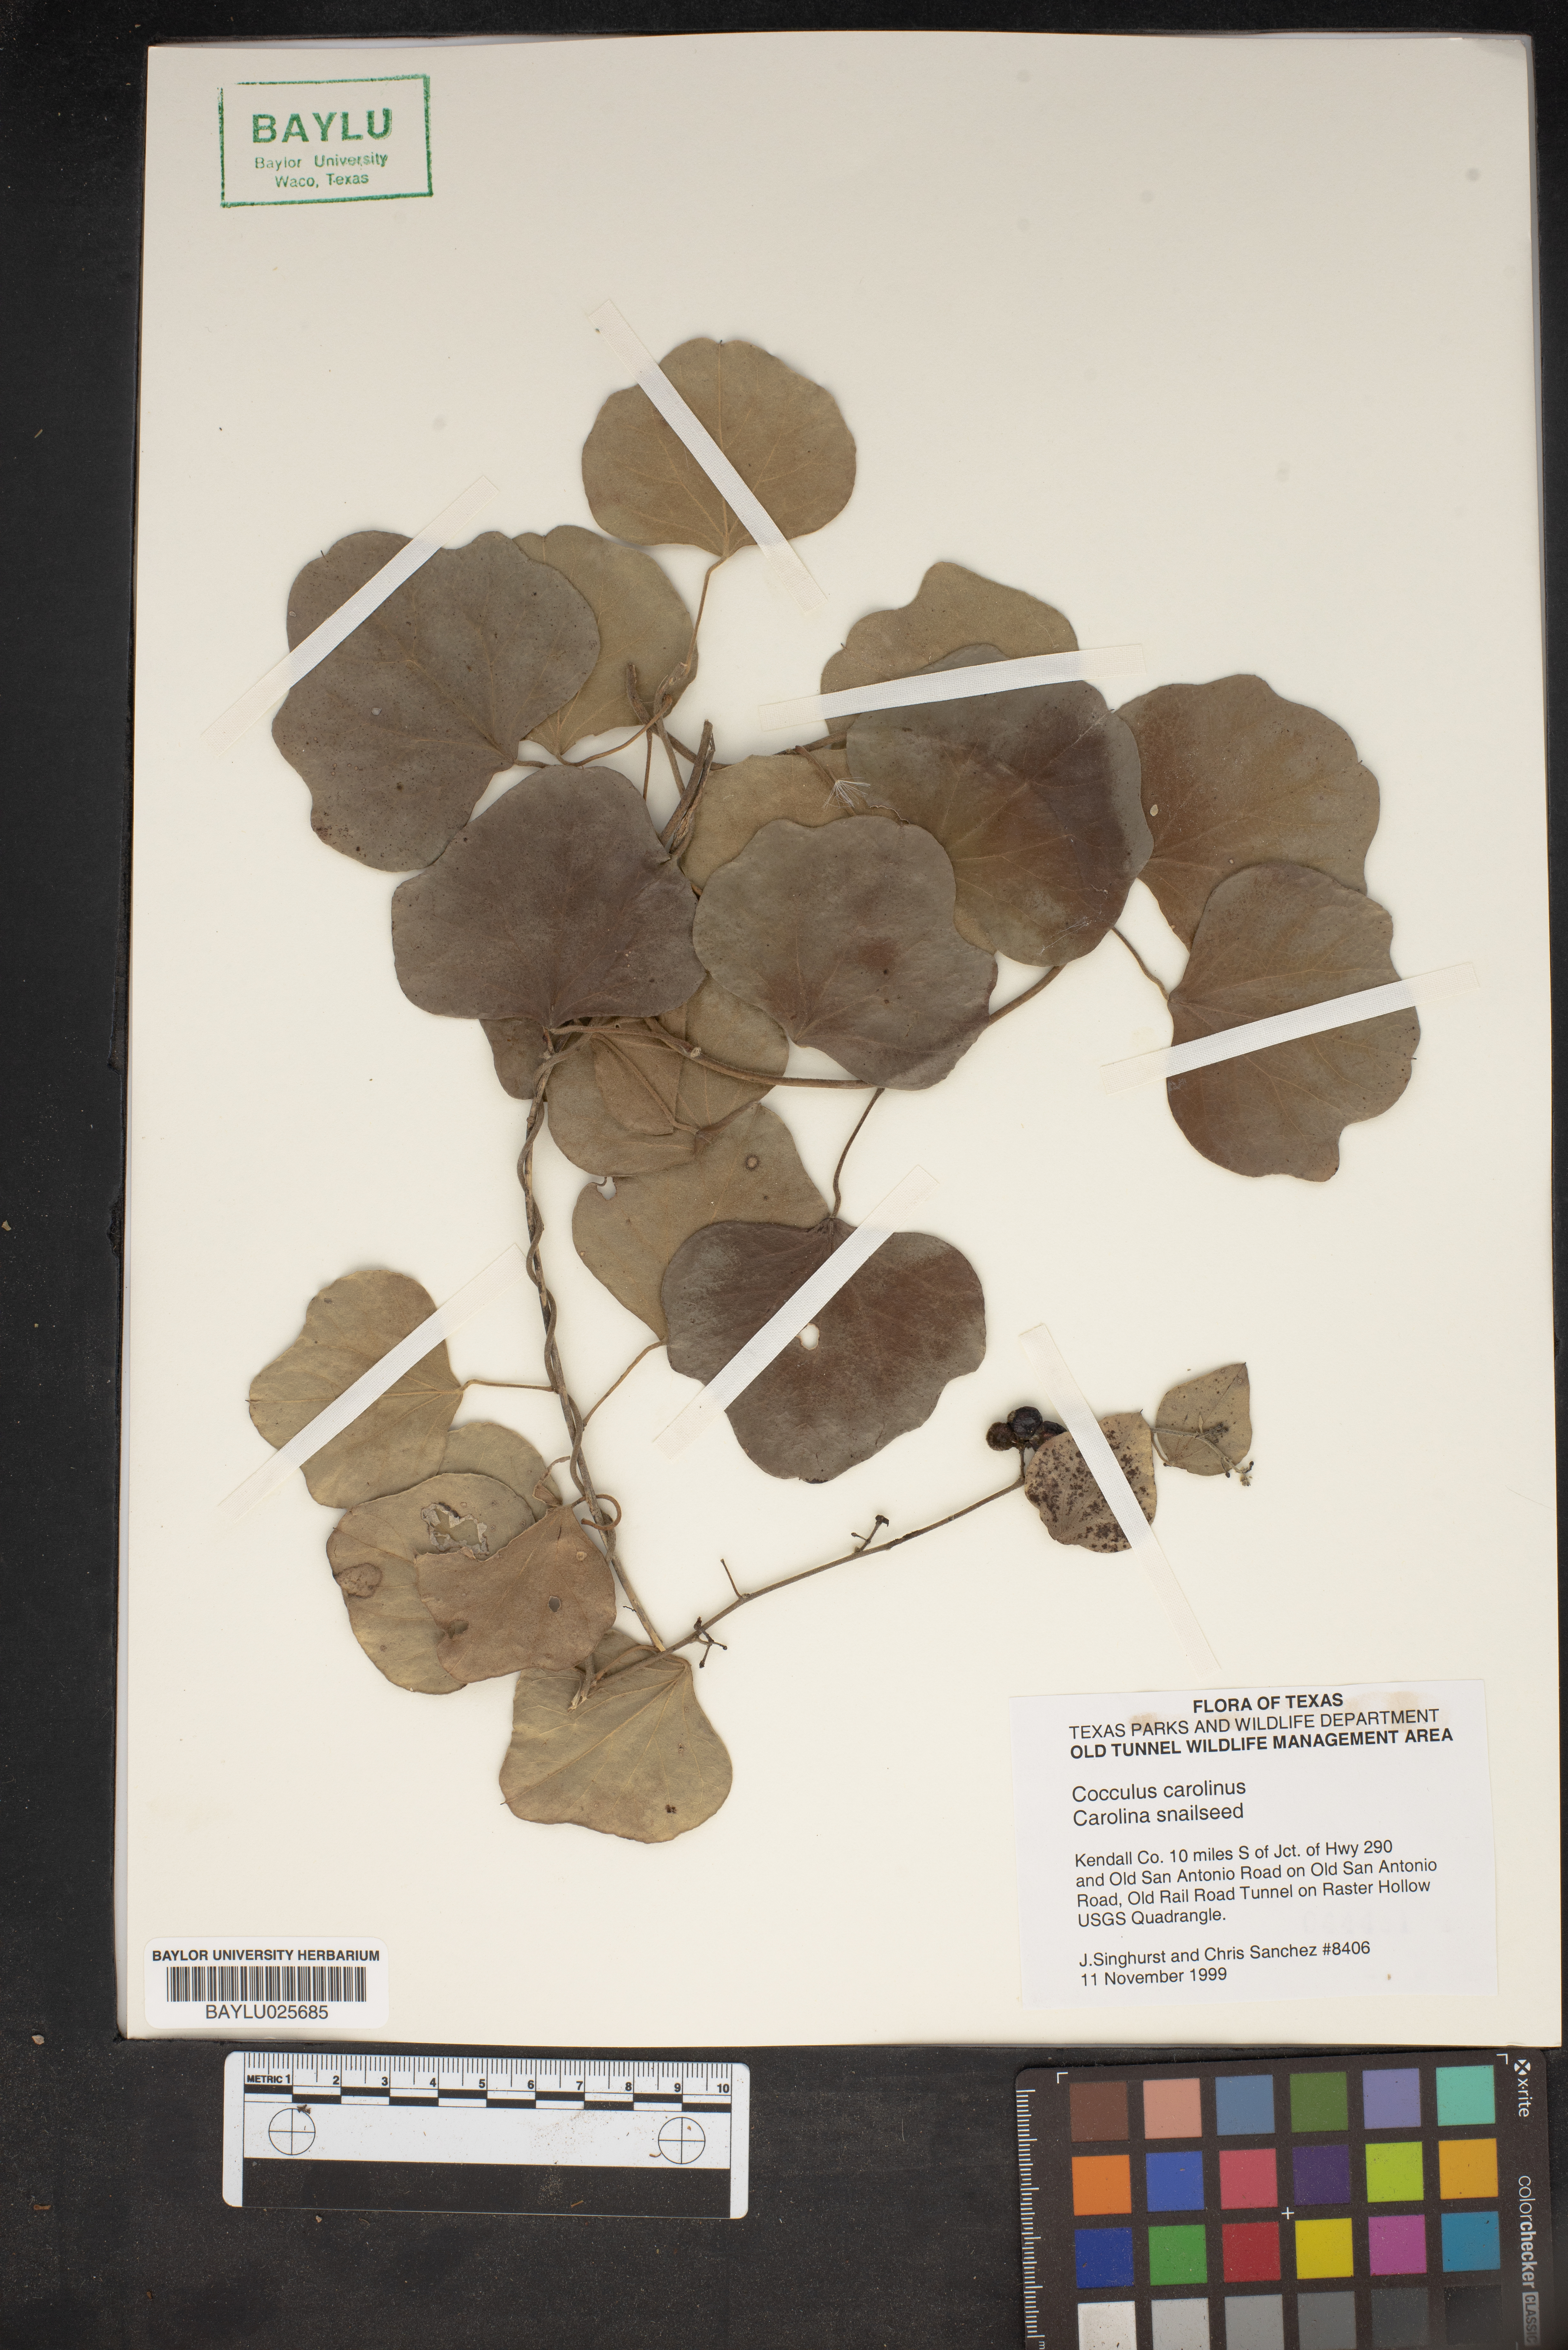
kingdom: Plantae
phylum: Tracheophyta
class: Magnoliopsida
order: Ranunculales
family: Menispermaceae
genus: Cocculus
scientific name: Cocculus carolinus
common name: Carolina moonseed
